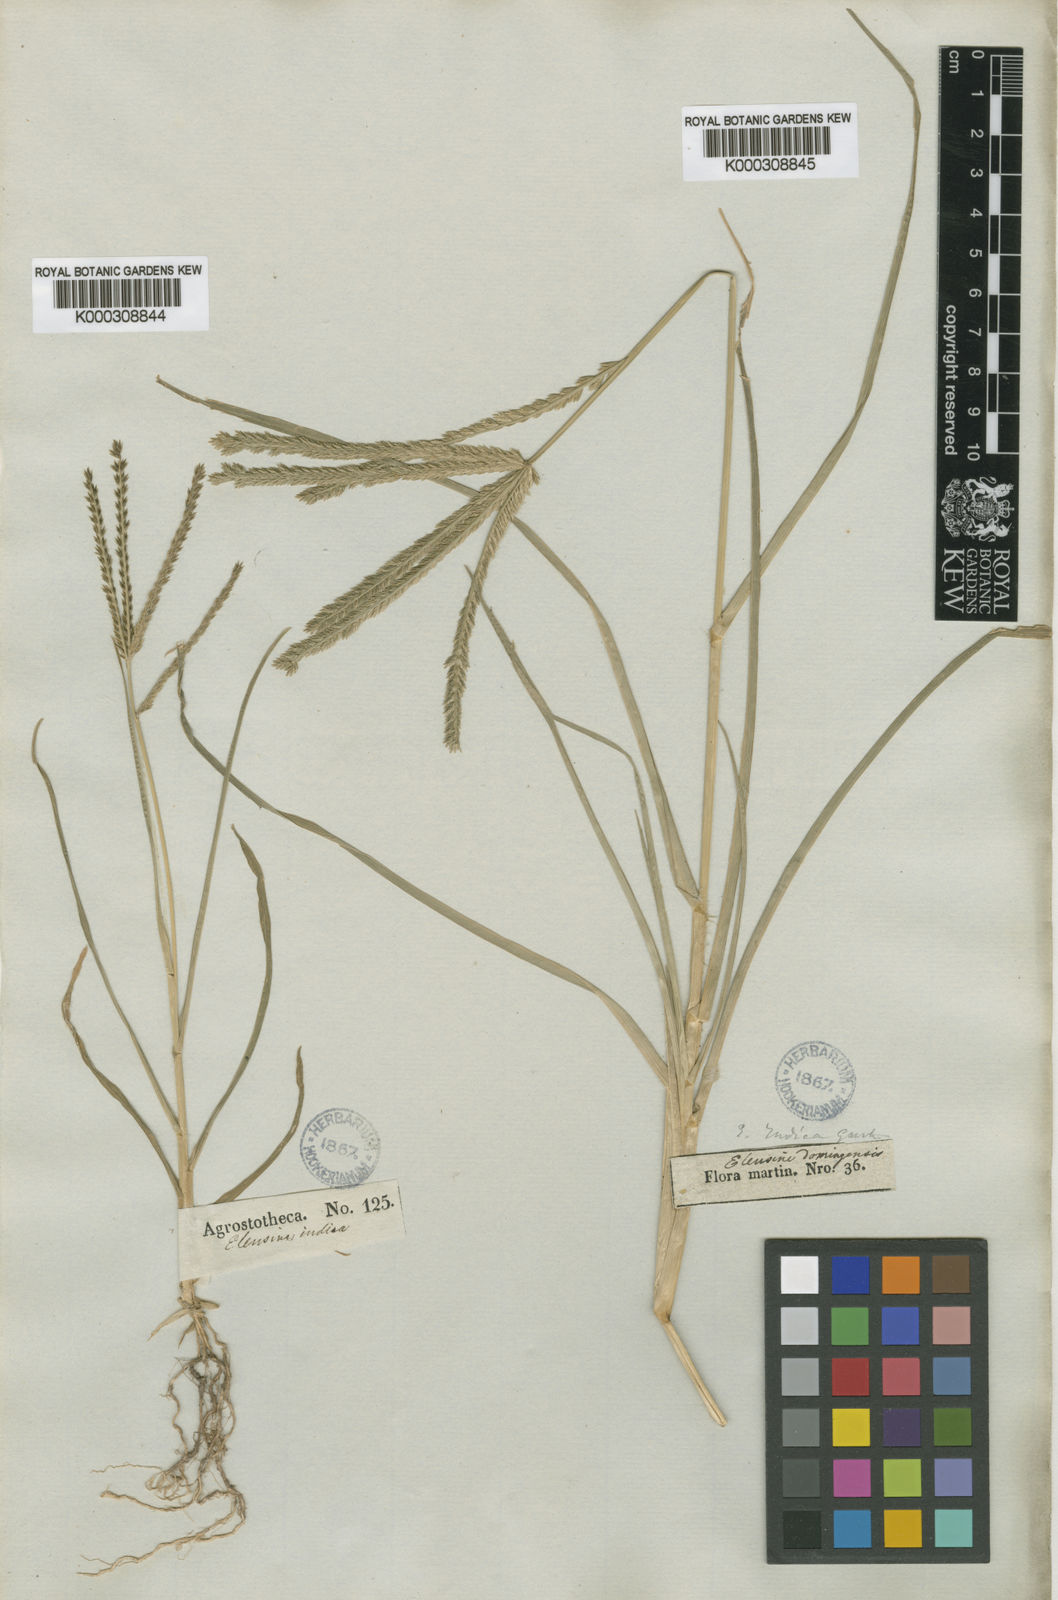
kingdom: Plantae
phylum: Tracheophyta
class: Liliopsida
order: Poales
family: Poaceae
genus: Eleusine
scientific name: Eleusine indica
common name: Yard-grass
